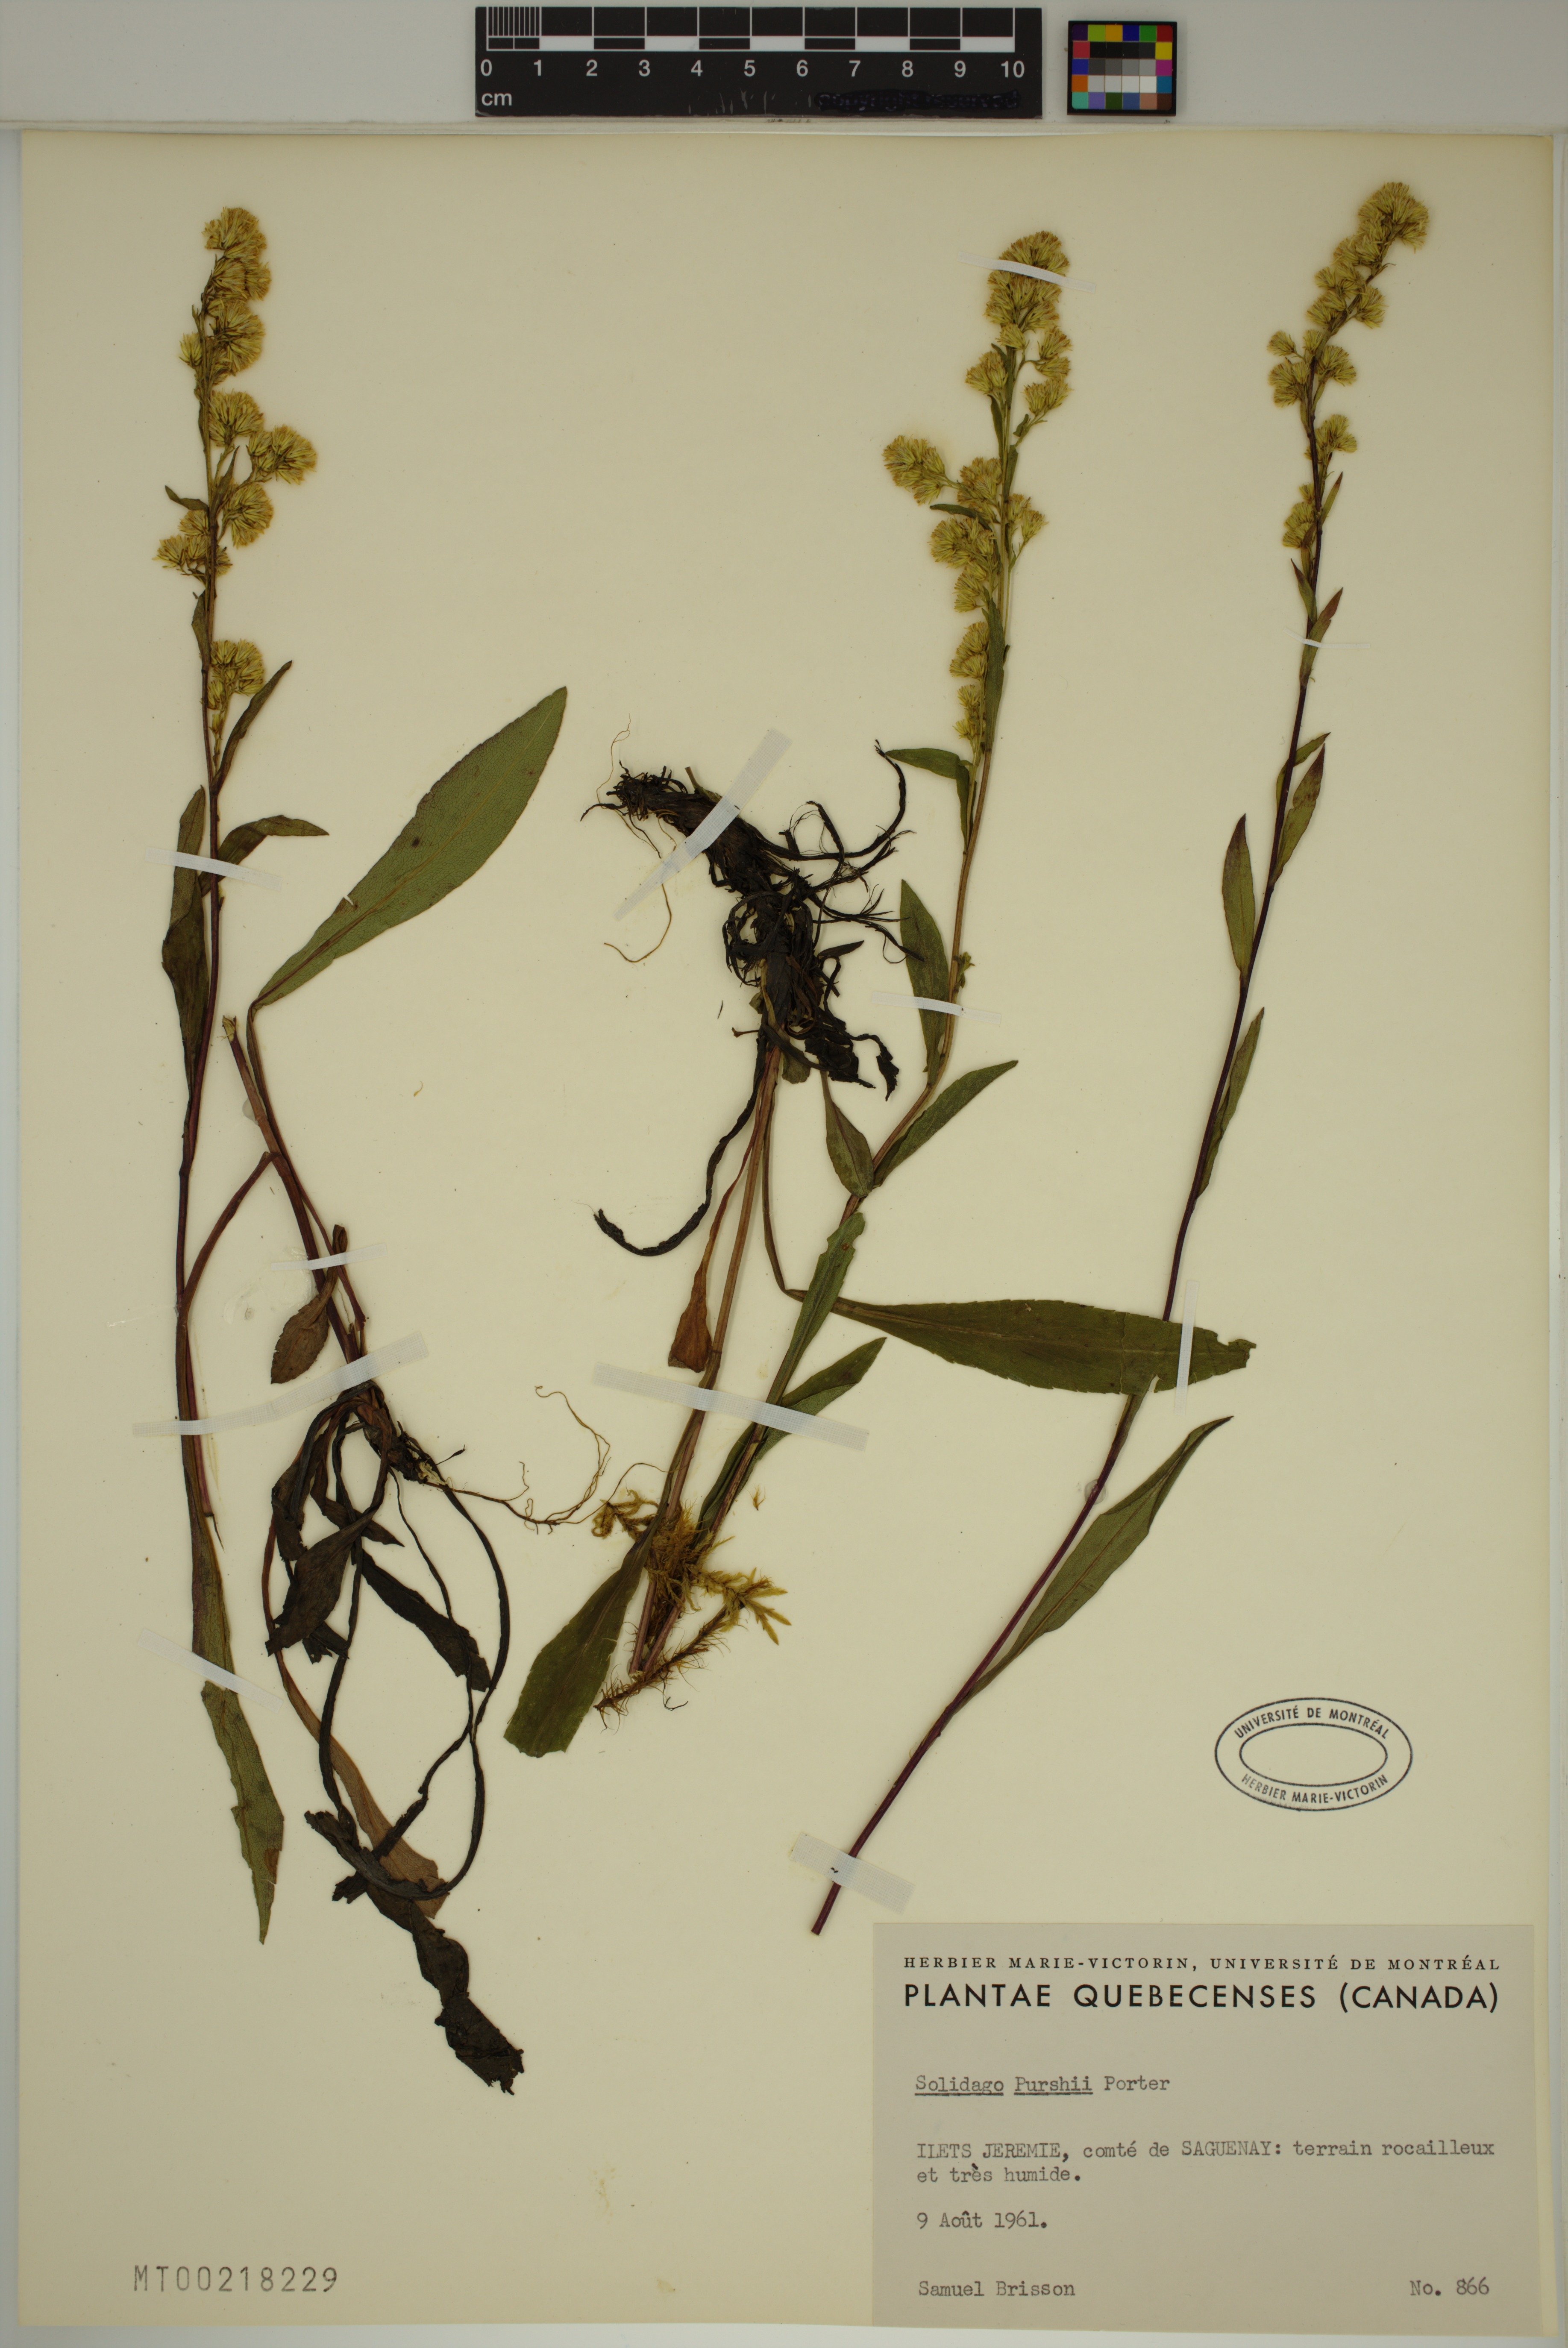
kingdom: Plantae
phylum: Tracheophyta
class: Magnoliopsida
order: Asterales
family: Asteraceae
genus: Solidago
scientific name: Solidago uliginosa
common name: Bog goldenrod
